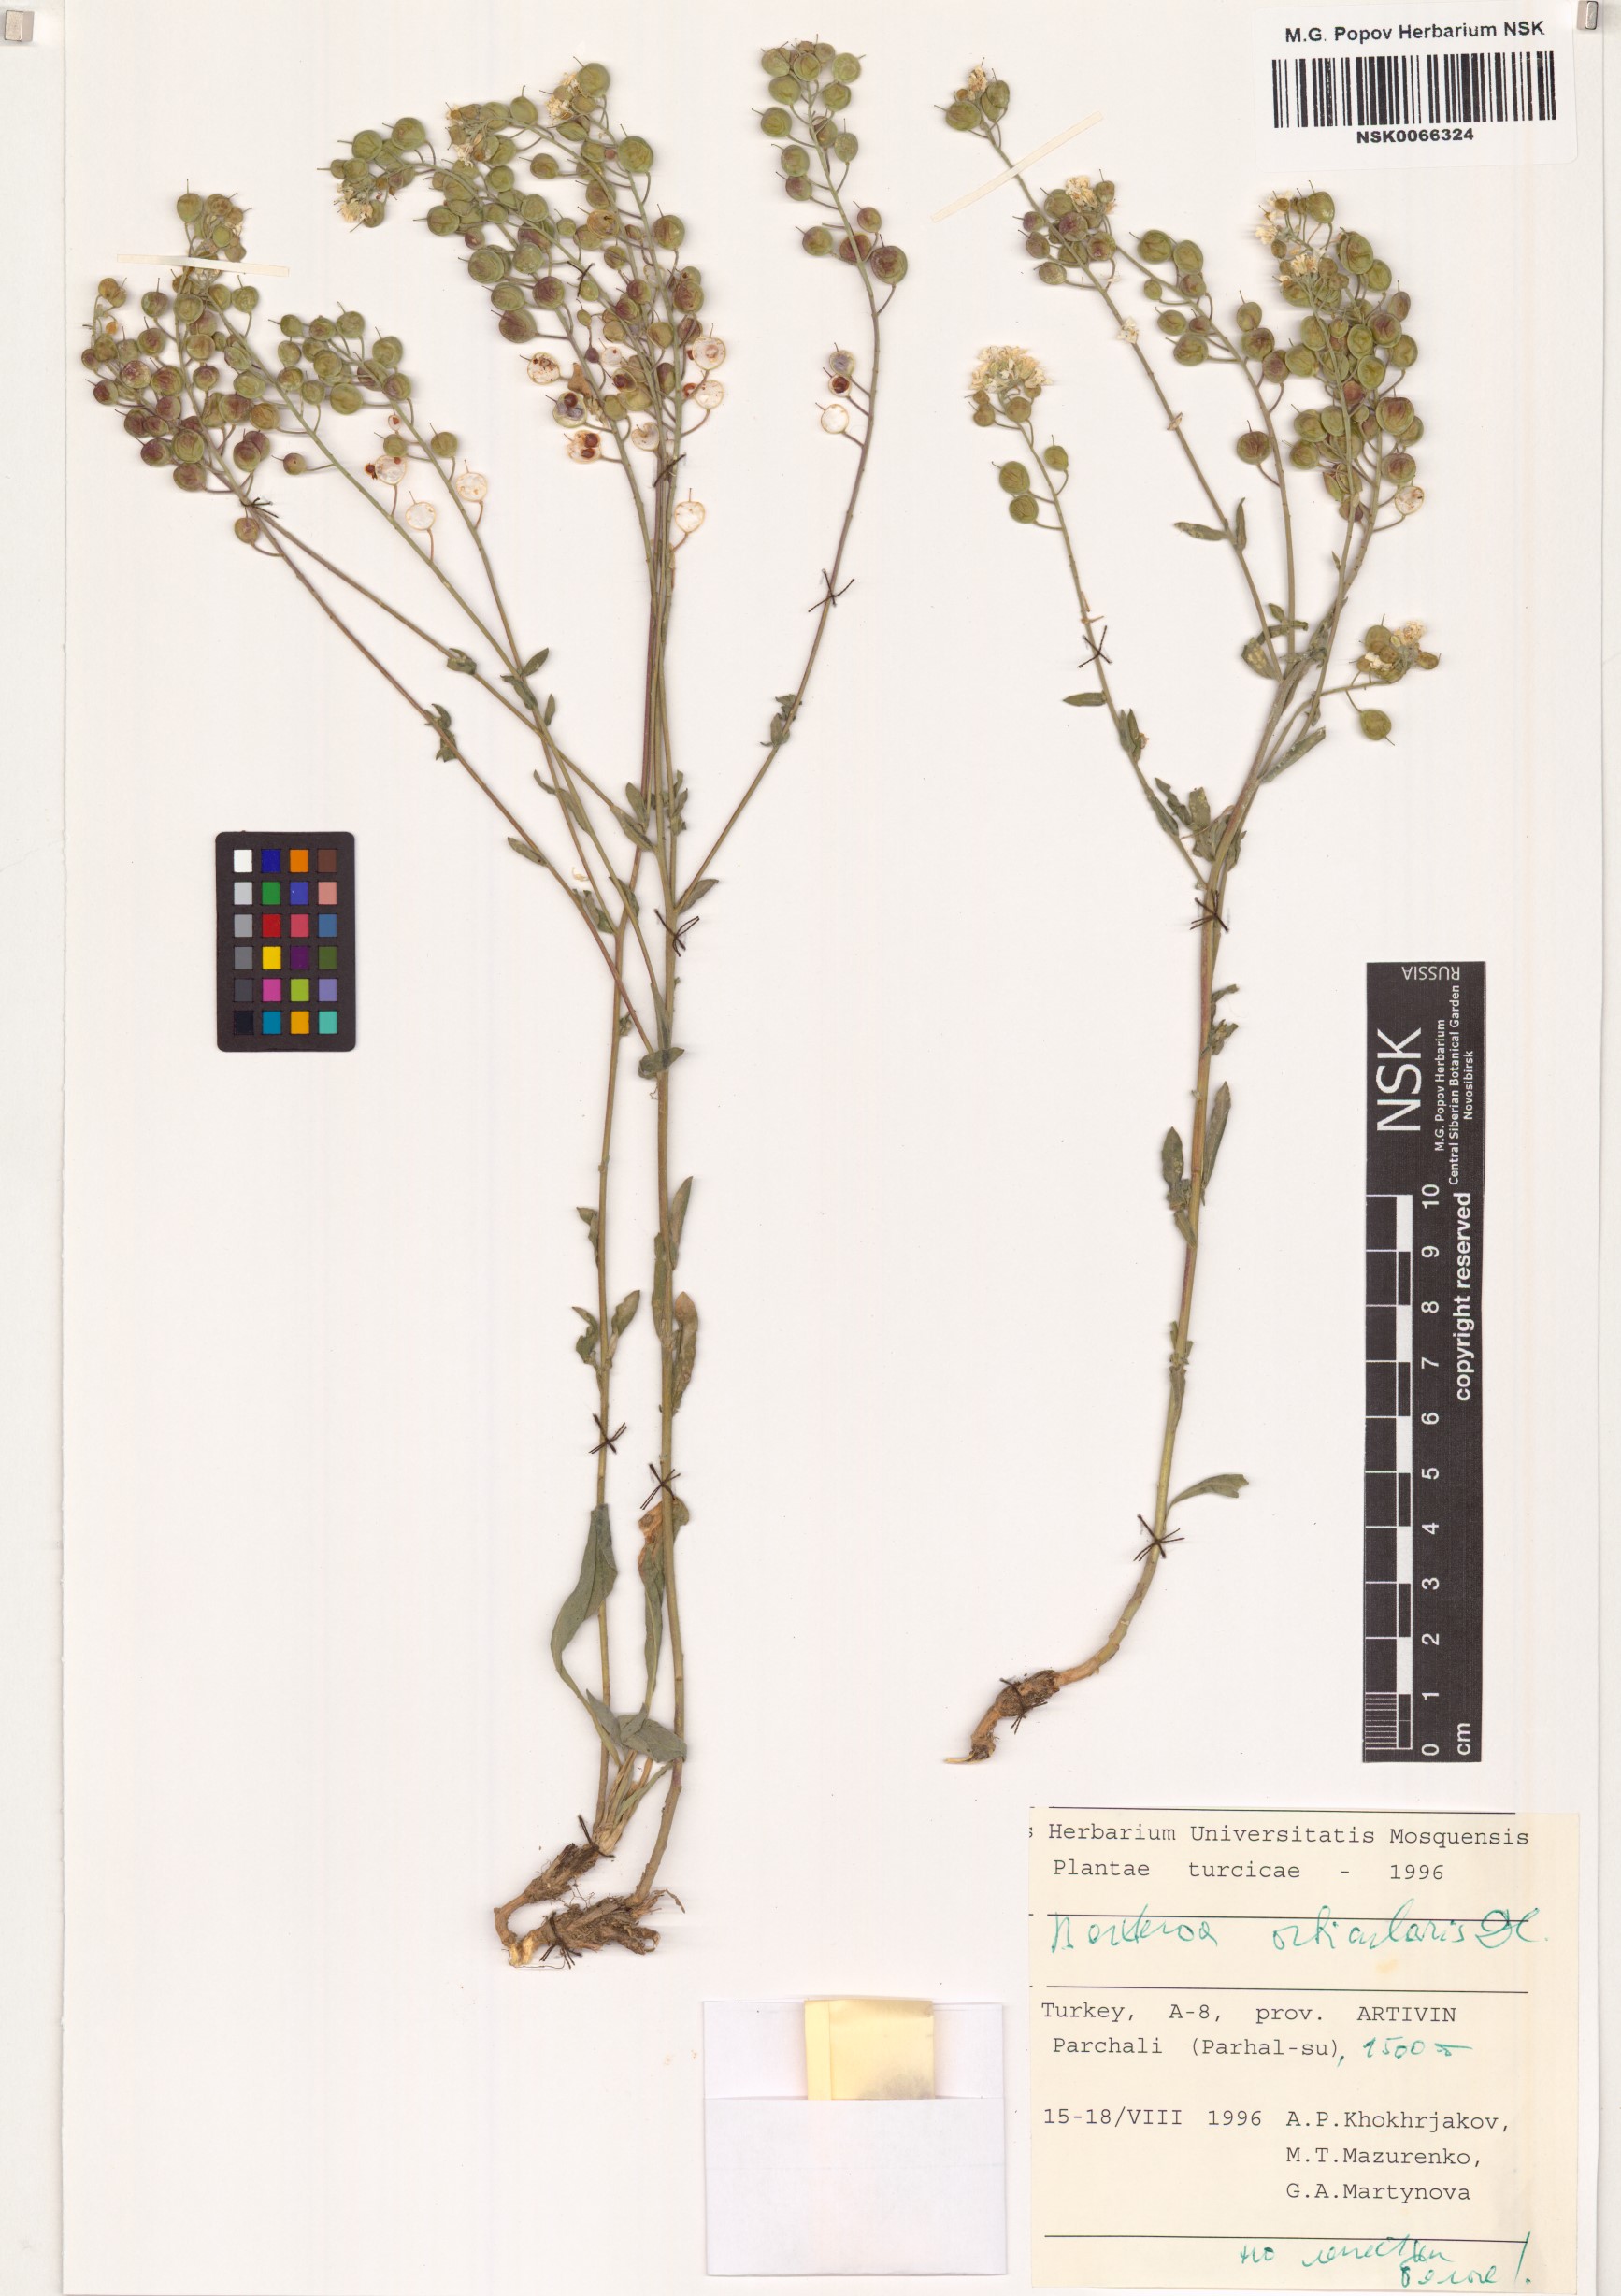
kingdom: Plantae
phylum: Tracheophyta
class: Magnoliopsida
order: Brassicales
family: Brassicaceae
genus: Berteroa
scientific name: Berteroa orbiculata
